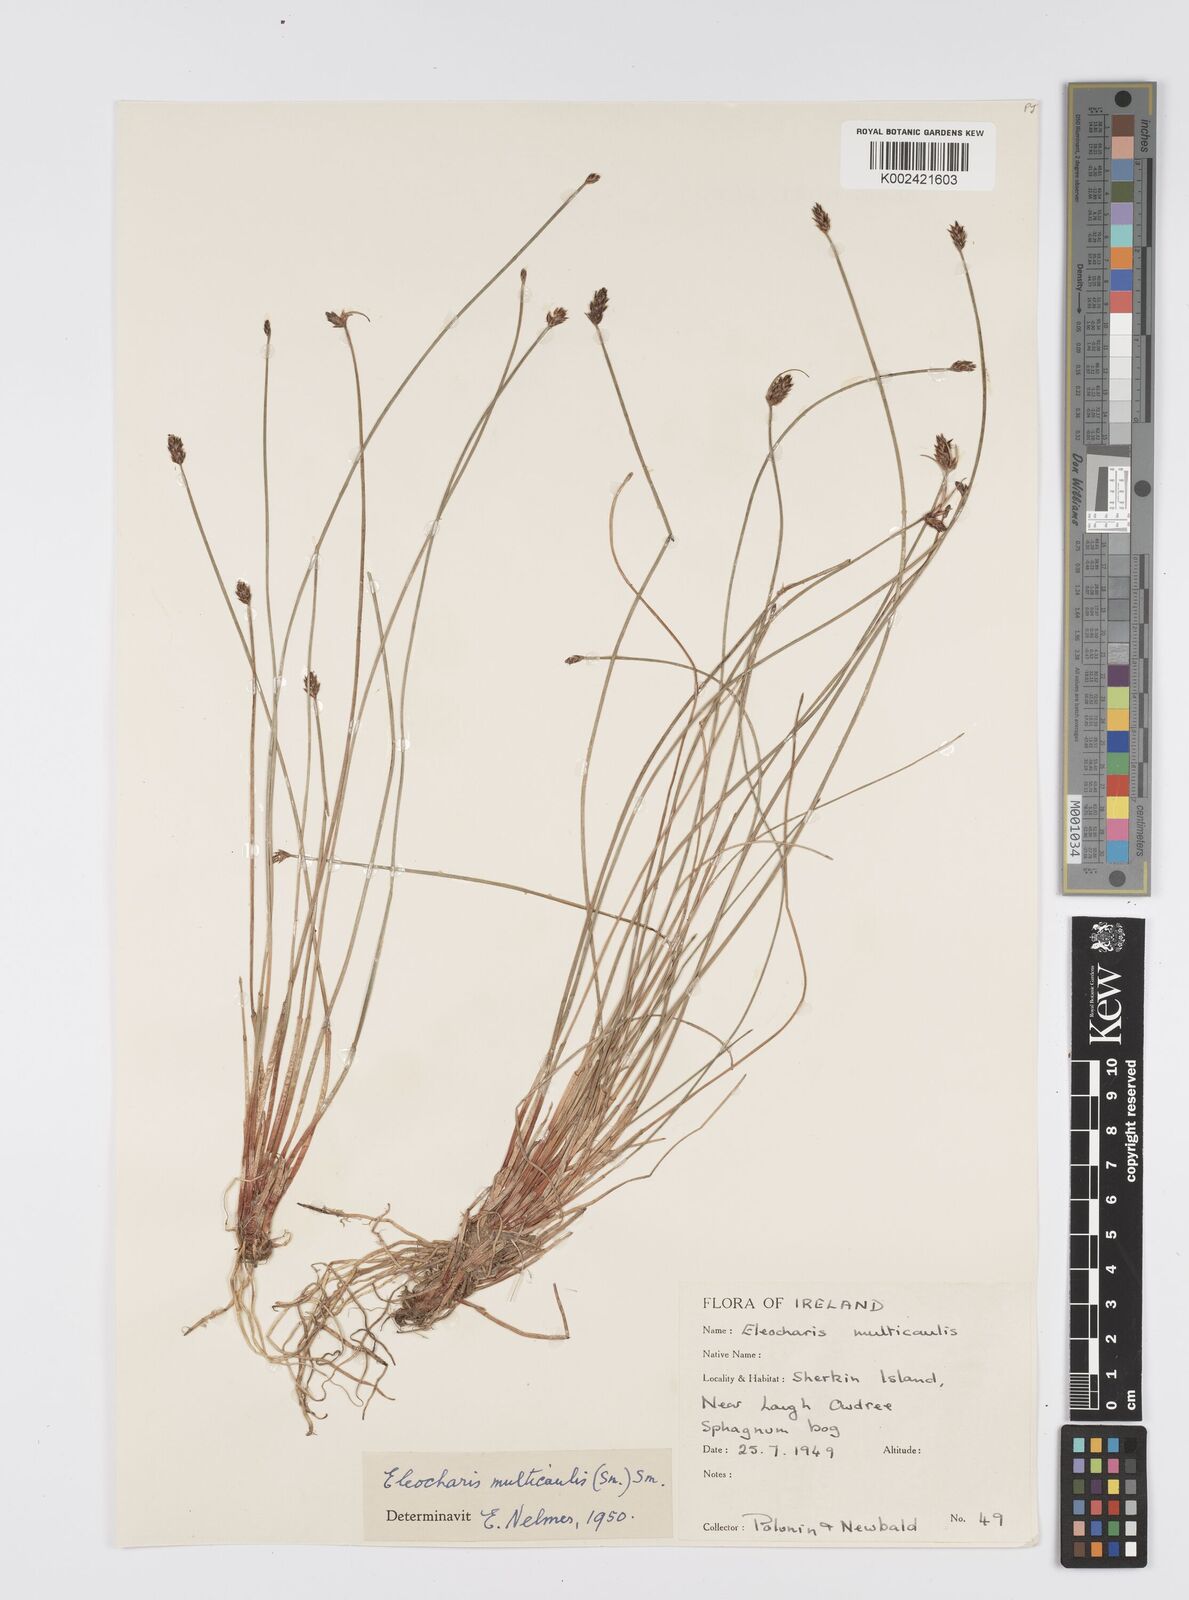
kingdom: Plantae
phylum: Tracheophyta
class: Liliopsida
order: Poales
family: Cyperaceae
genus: Eleocharis
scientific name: Eleocharis multicaulis
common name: Many-stalked spike-rush
